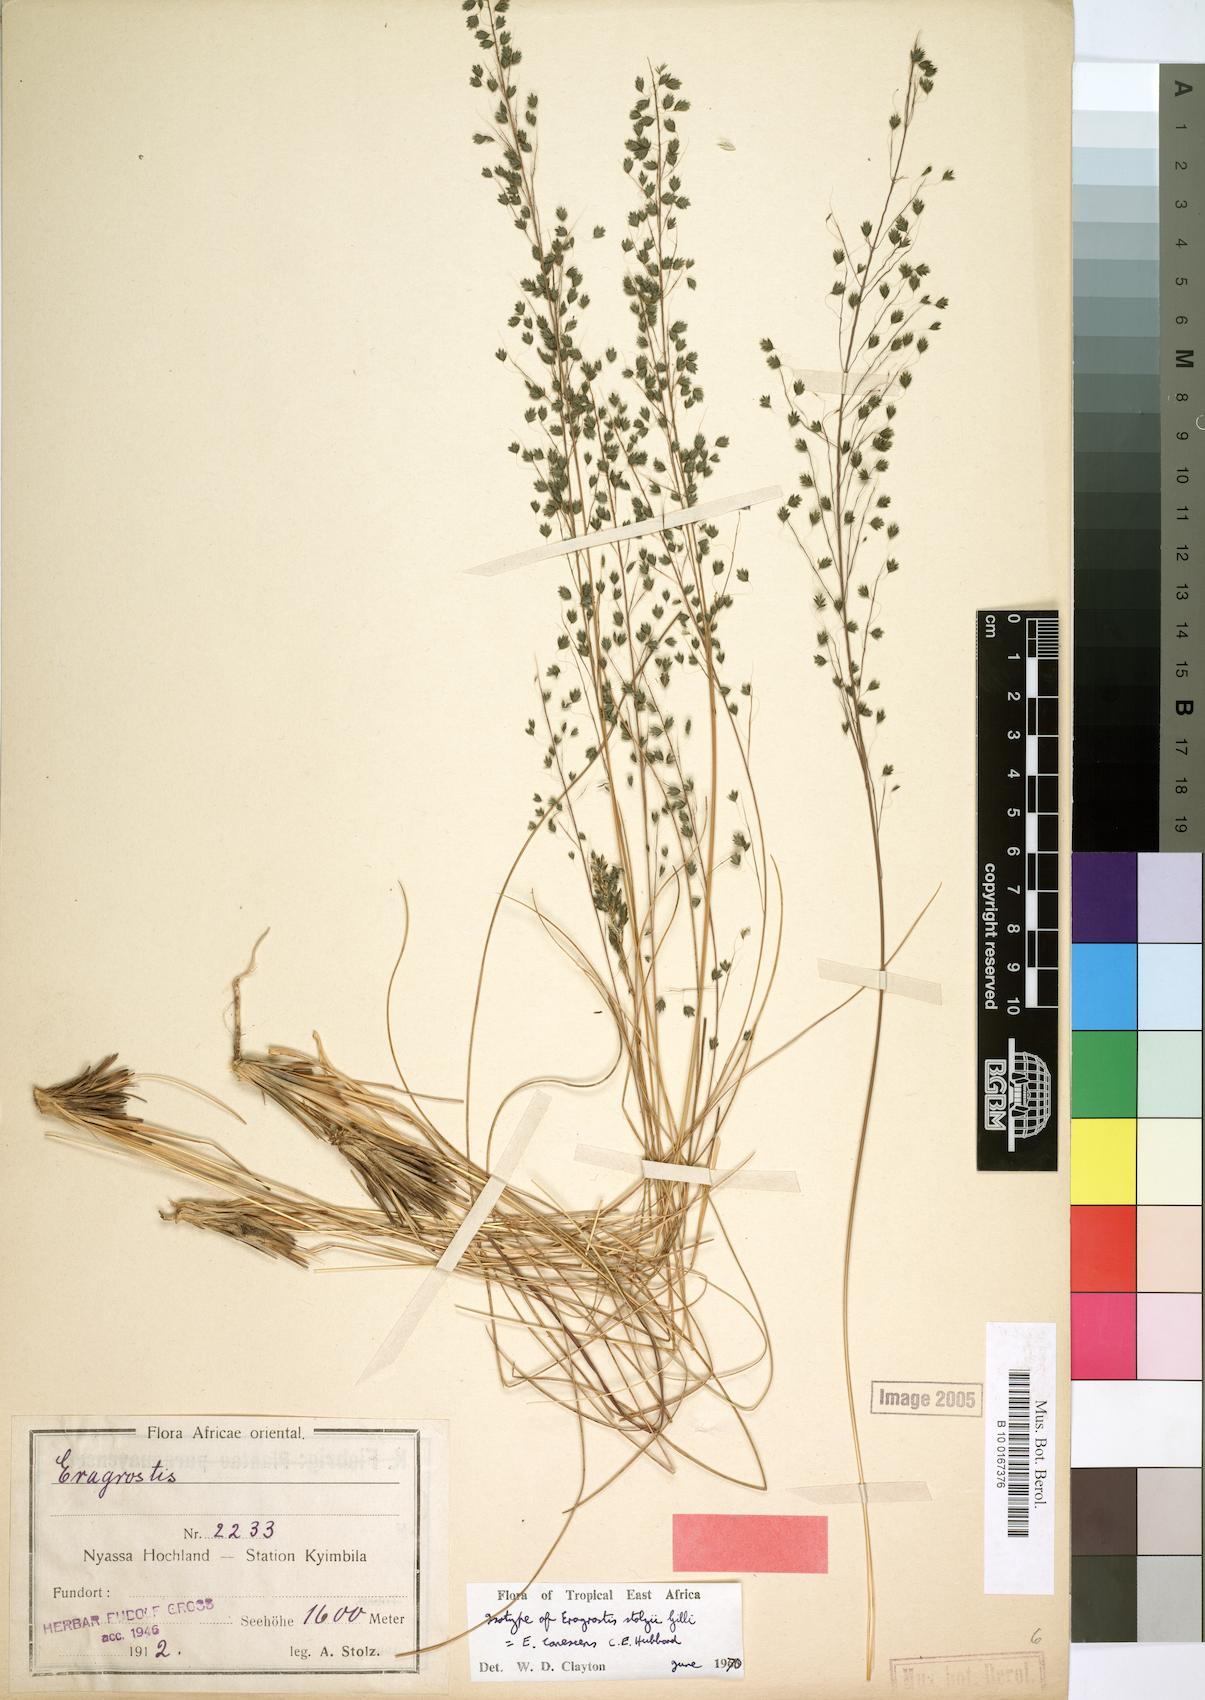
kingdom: Plantae
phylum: Tracheophyta
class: Liliopsida
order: Poales
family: Poaceae
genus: Eragrostis
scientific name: Eragrostis canescens
